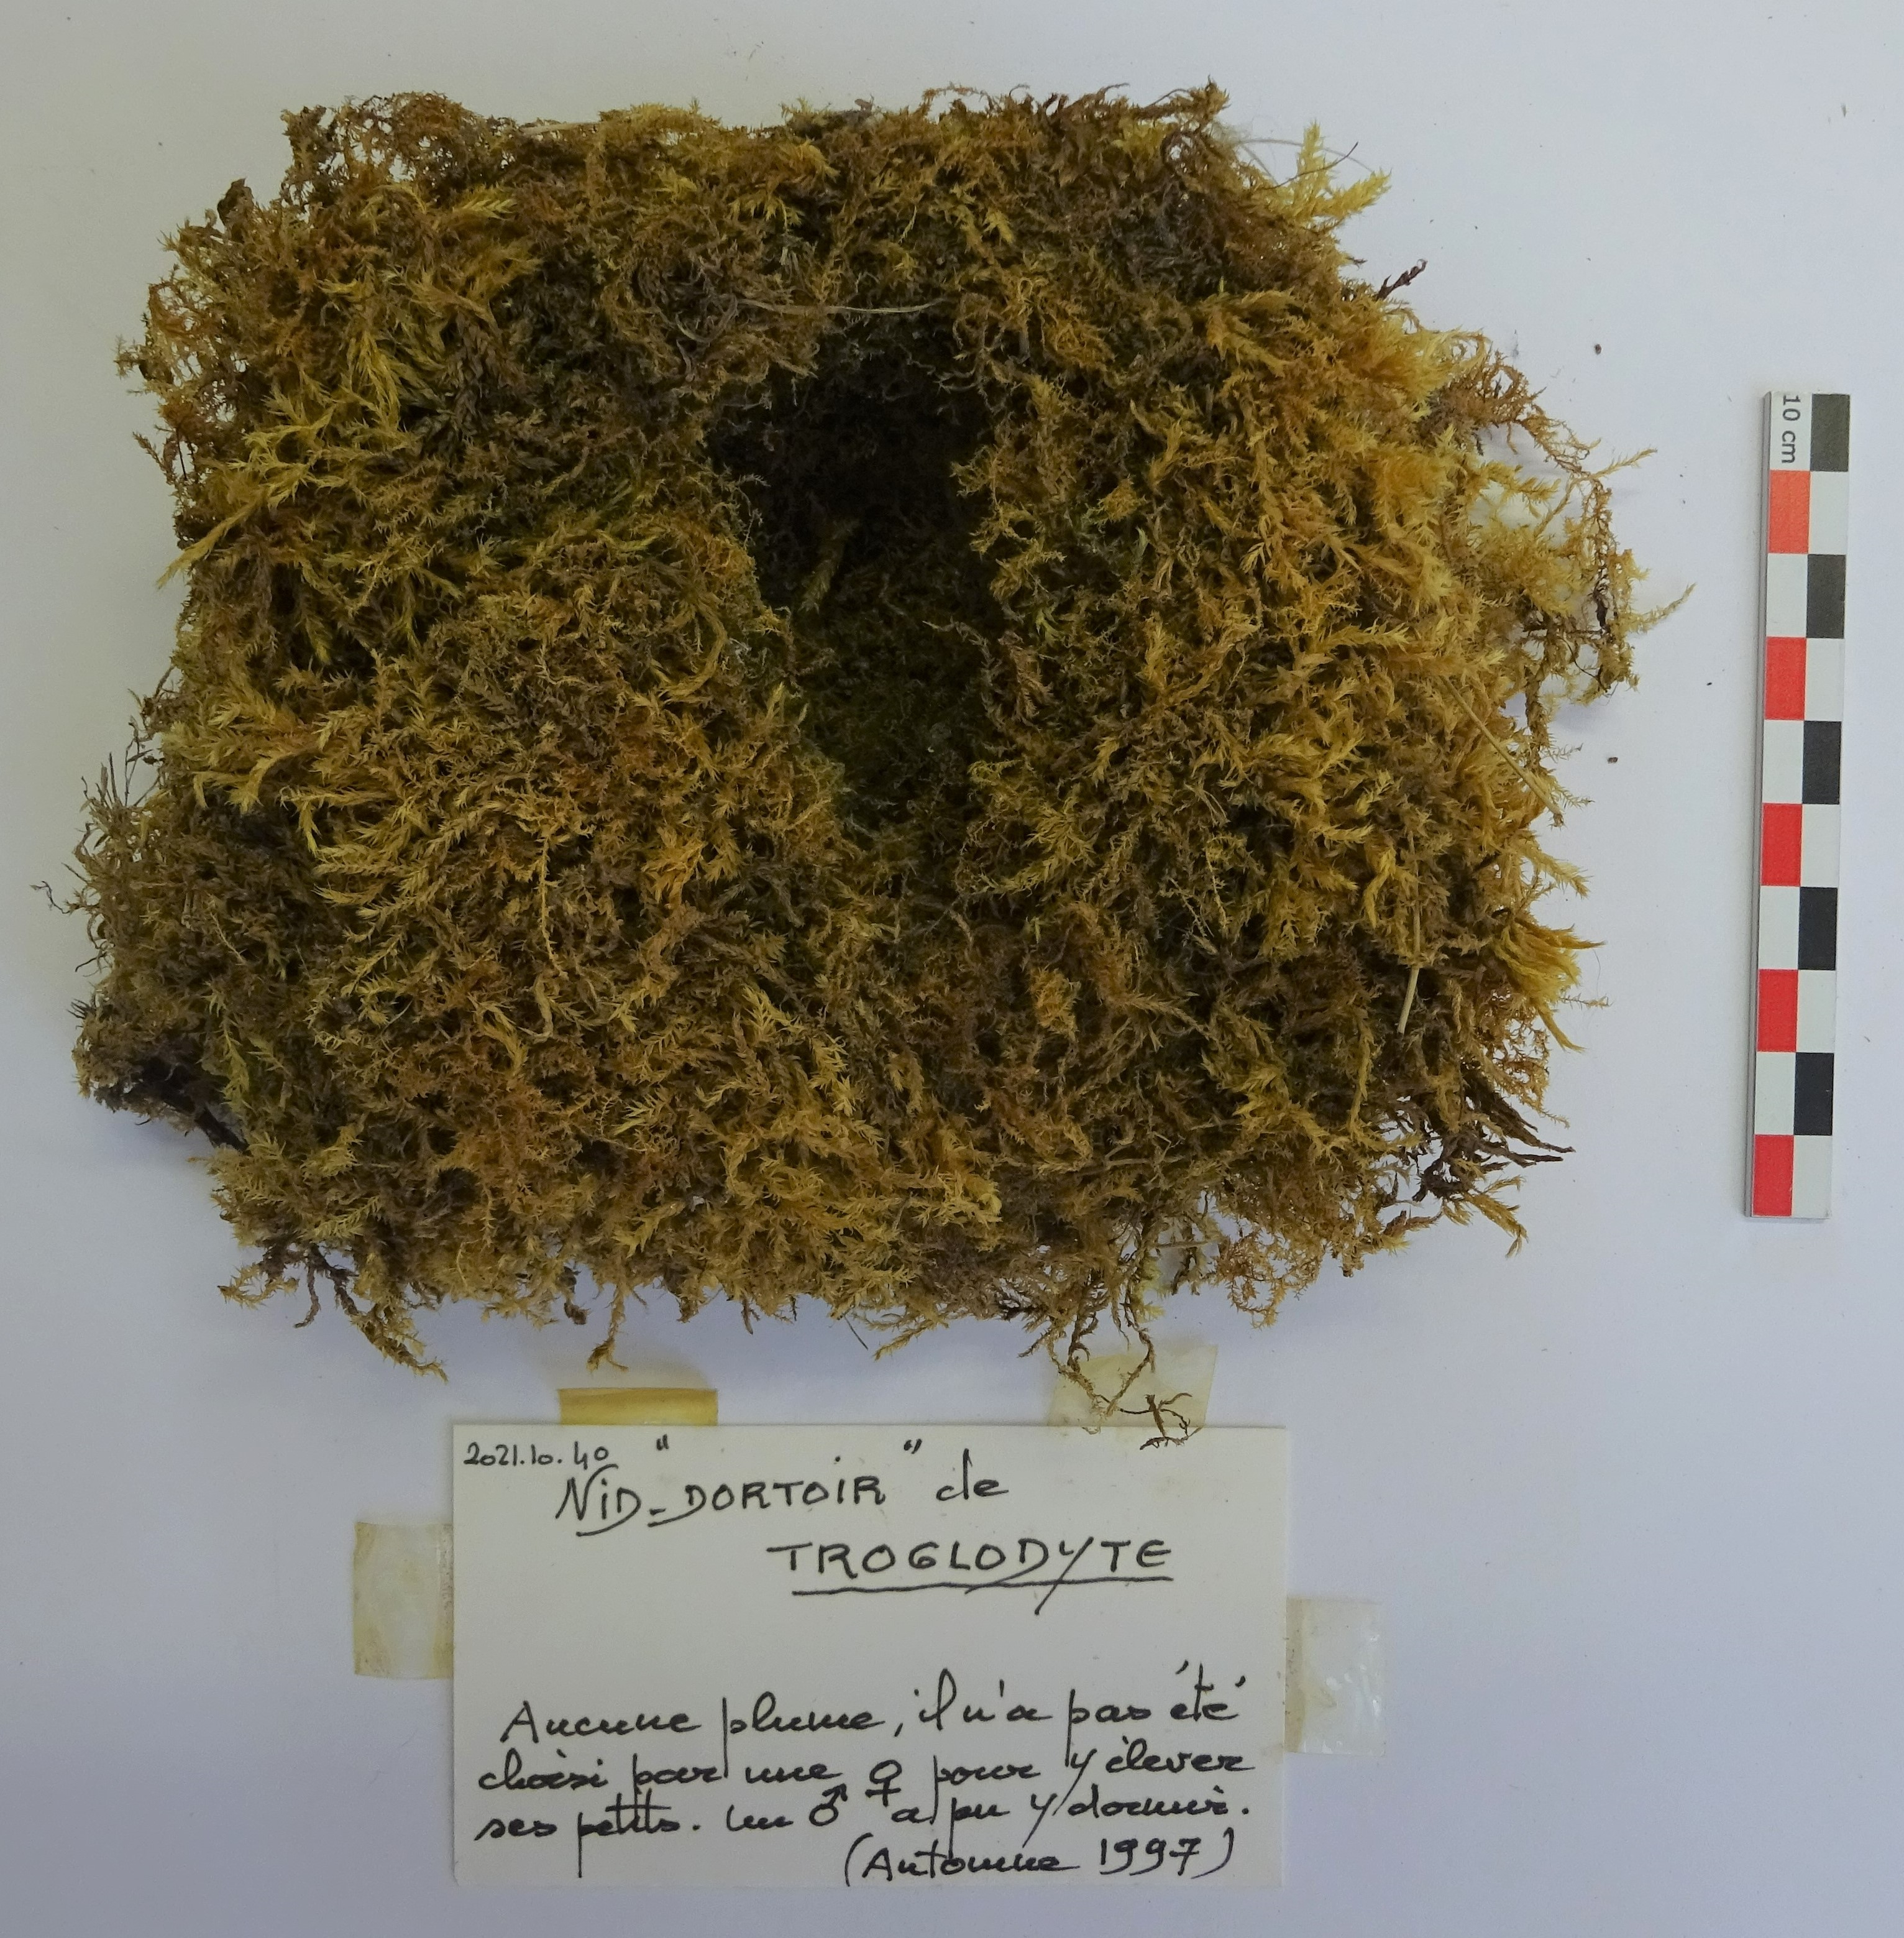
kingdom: Animalia
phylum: Chordata
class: Aves
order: Passeriformes
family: Troglodytidae
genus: Troglodytes
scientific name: Troglodytes troglodytes
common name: Eurasian wren
